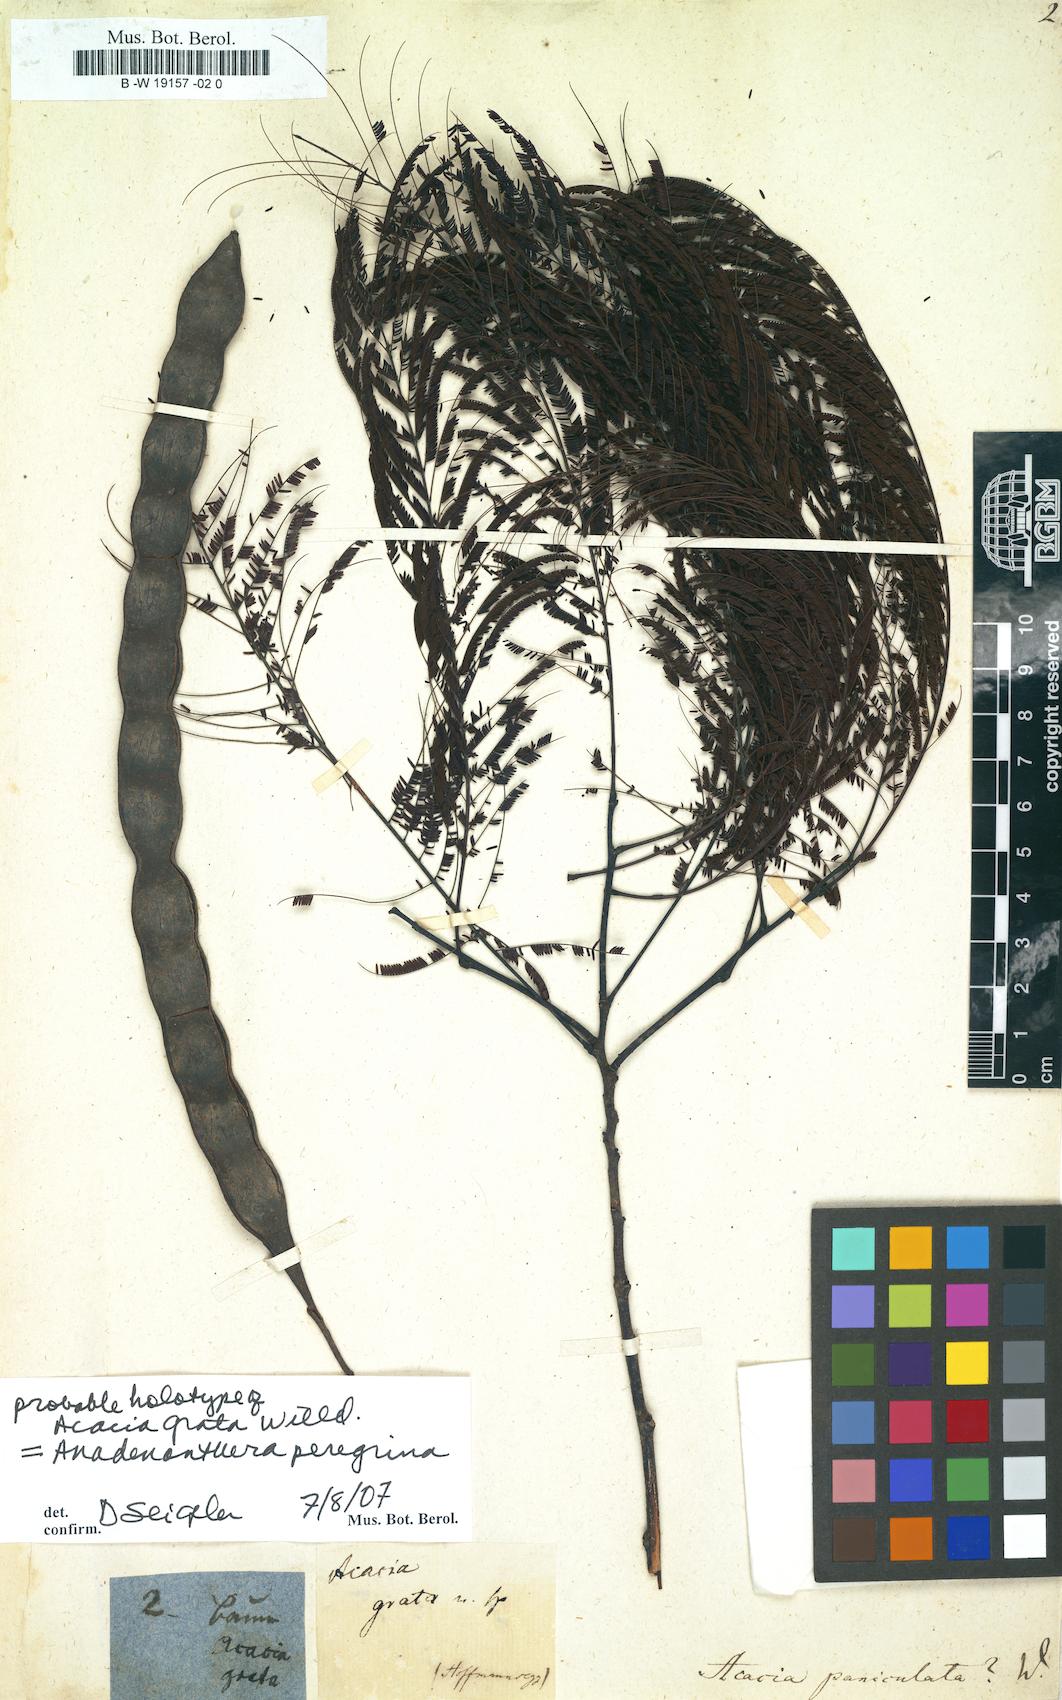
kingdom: Plantae
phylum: Tracheophyta
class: Magnoliopsida
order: Fabales
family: Fabaceae
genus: Senegalia
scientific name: Senegalia paniculata
